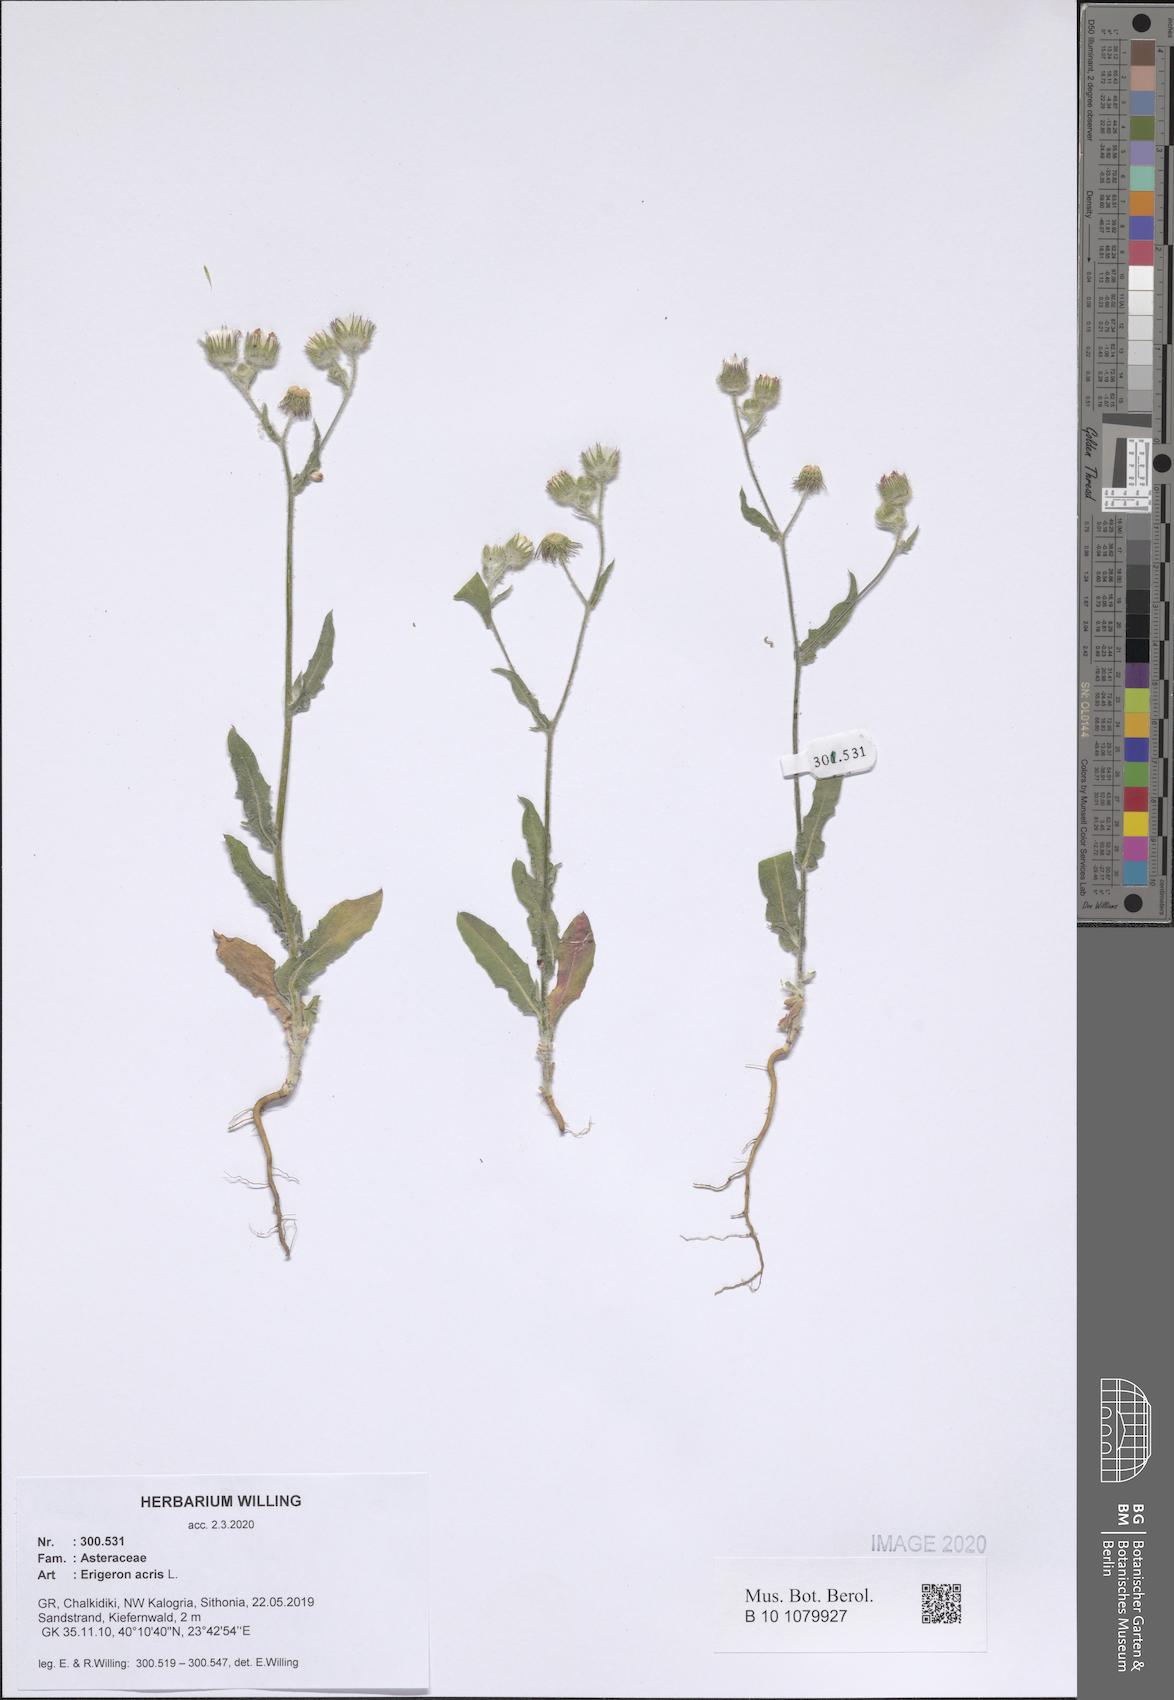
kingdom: Plantae
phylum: Tracheophyta
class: Magnoliopsida
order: Asterales
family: Asteraceae
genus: Erigeron
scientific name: Erigeron acris
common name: Blue fleabane
